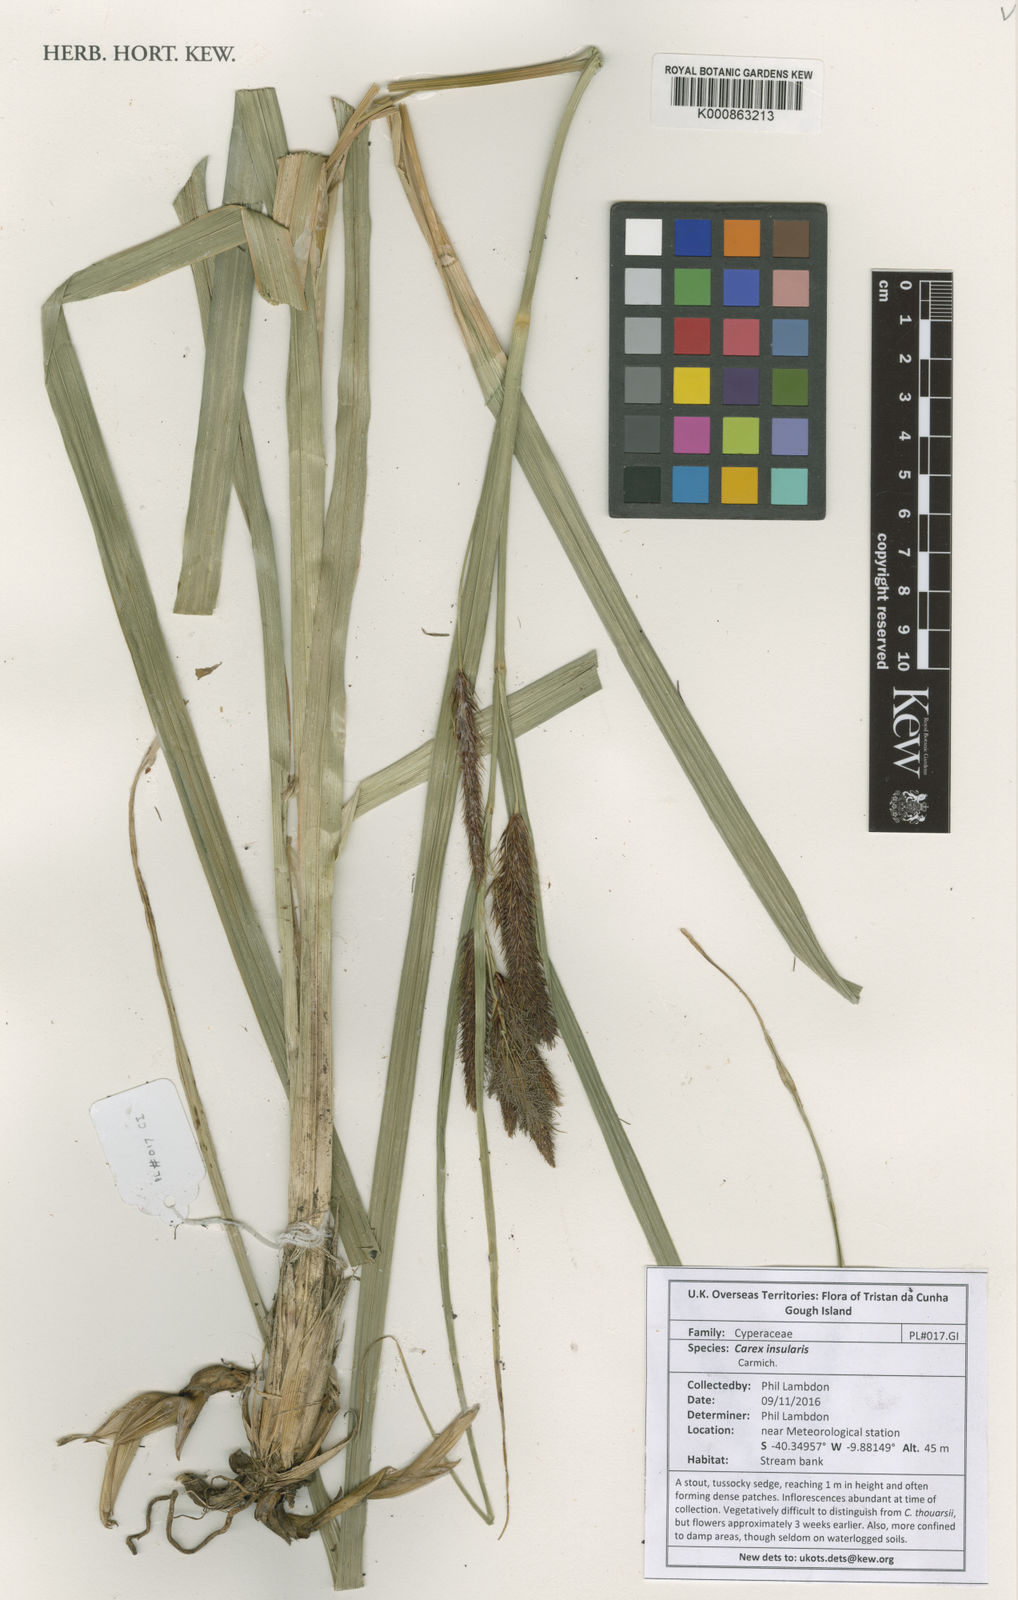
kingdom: Plantae
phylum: Tracheophyta
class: Liliopsida
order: Poales
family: Cyperaceae
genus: Carex
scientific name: Carex insularis
